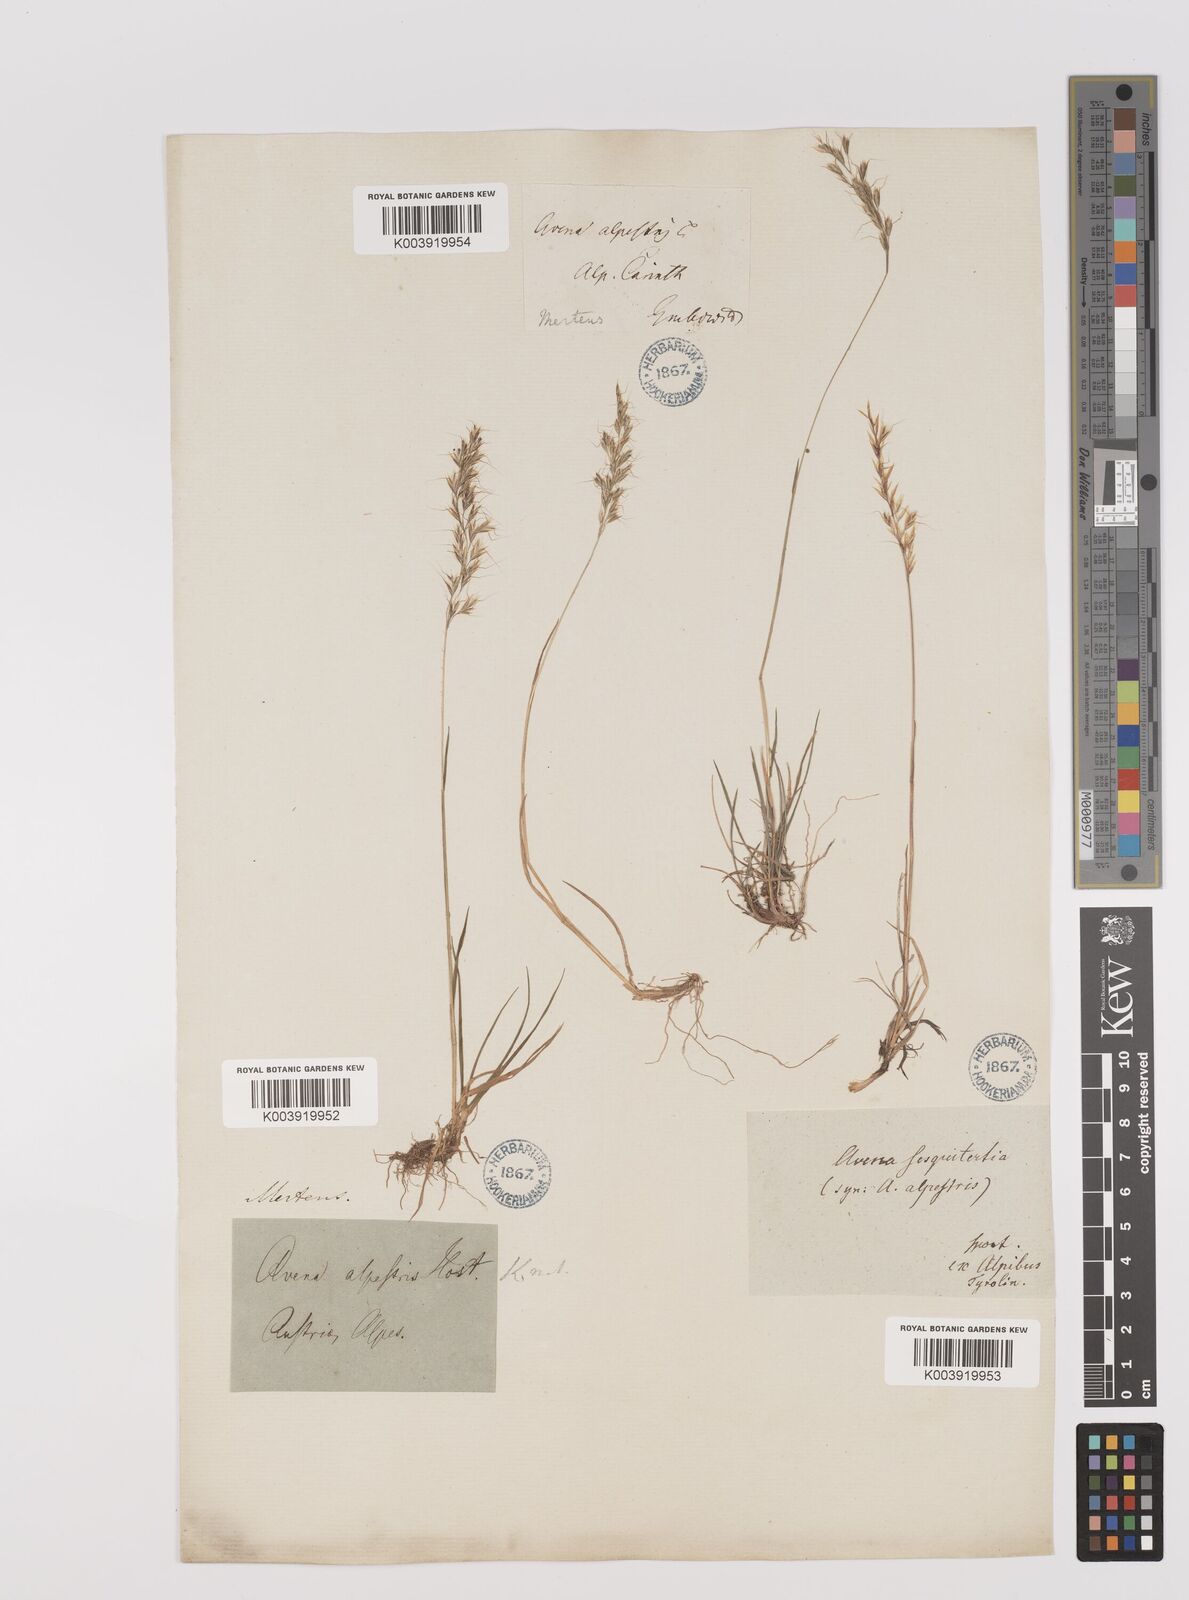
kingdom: Plantae
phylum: Tracheophyta
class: Liliopsida
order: Poales
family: Poaceae
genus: Trisetum
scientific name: Trisetum alpestre
